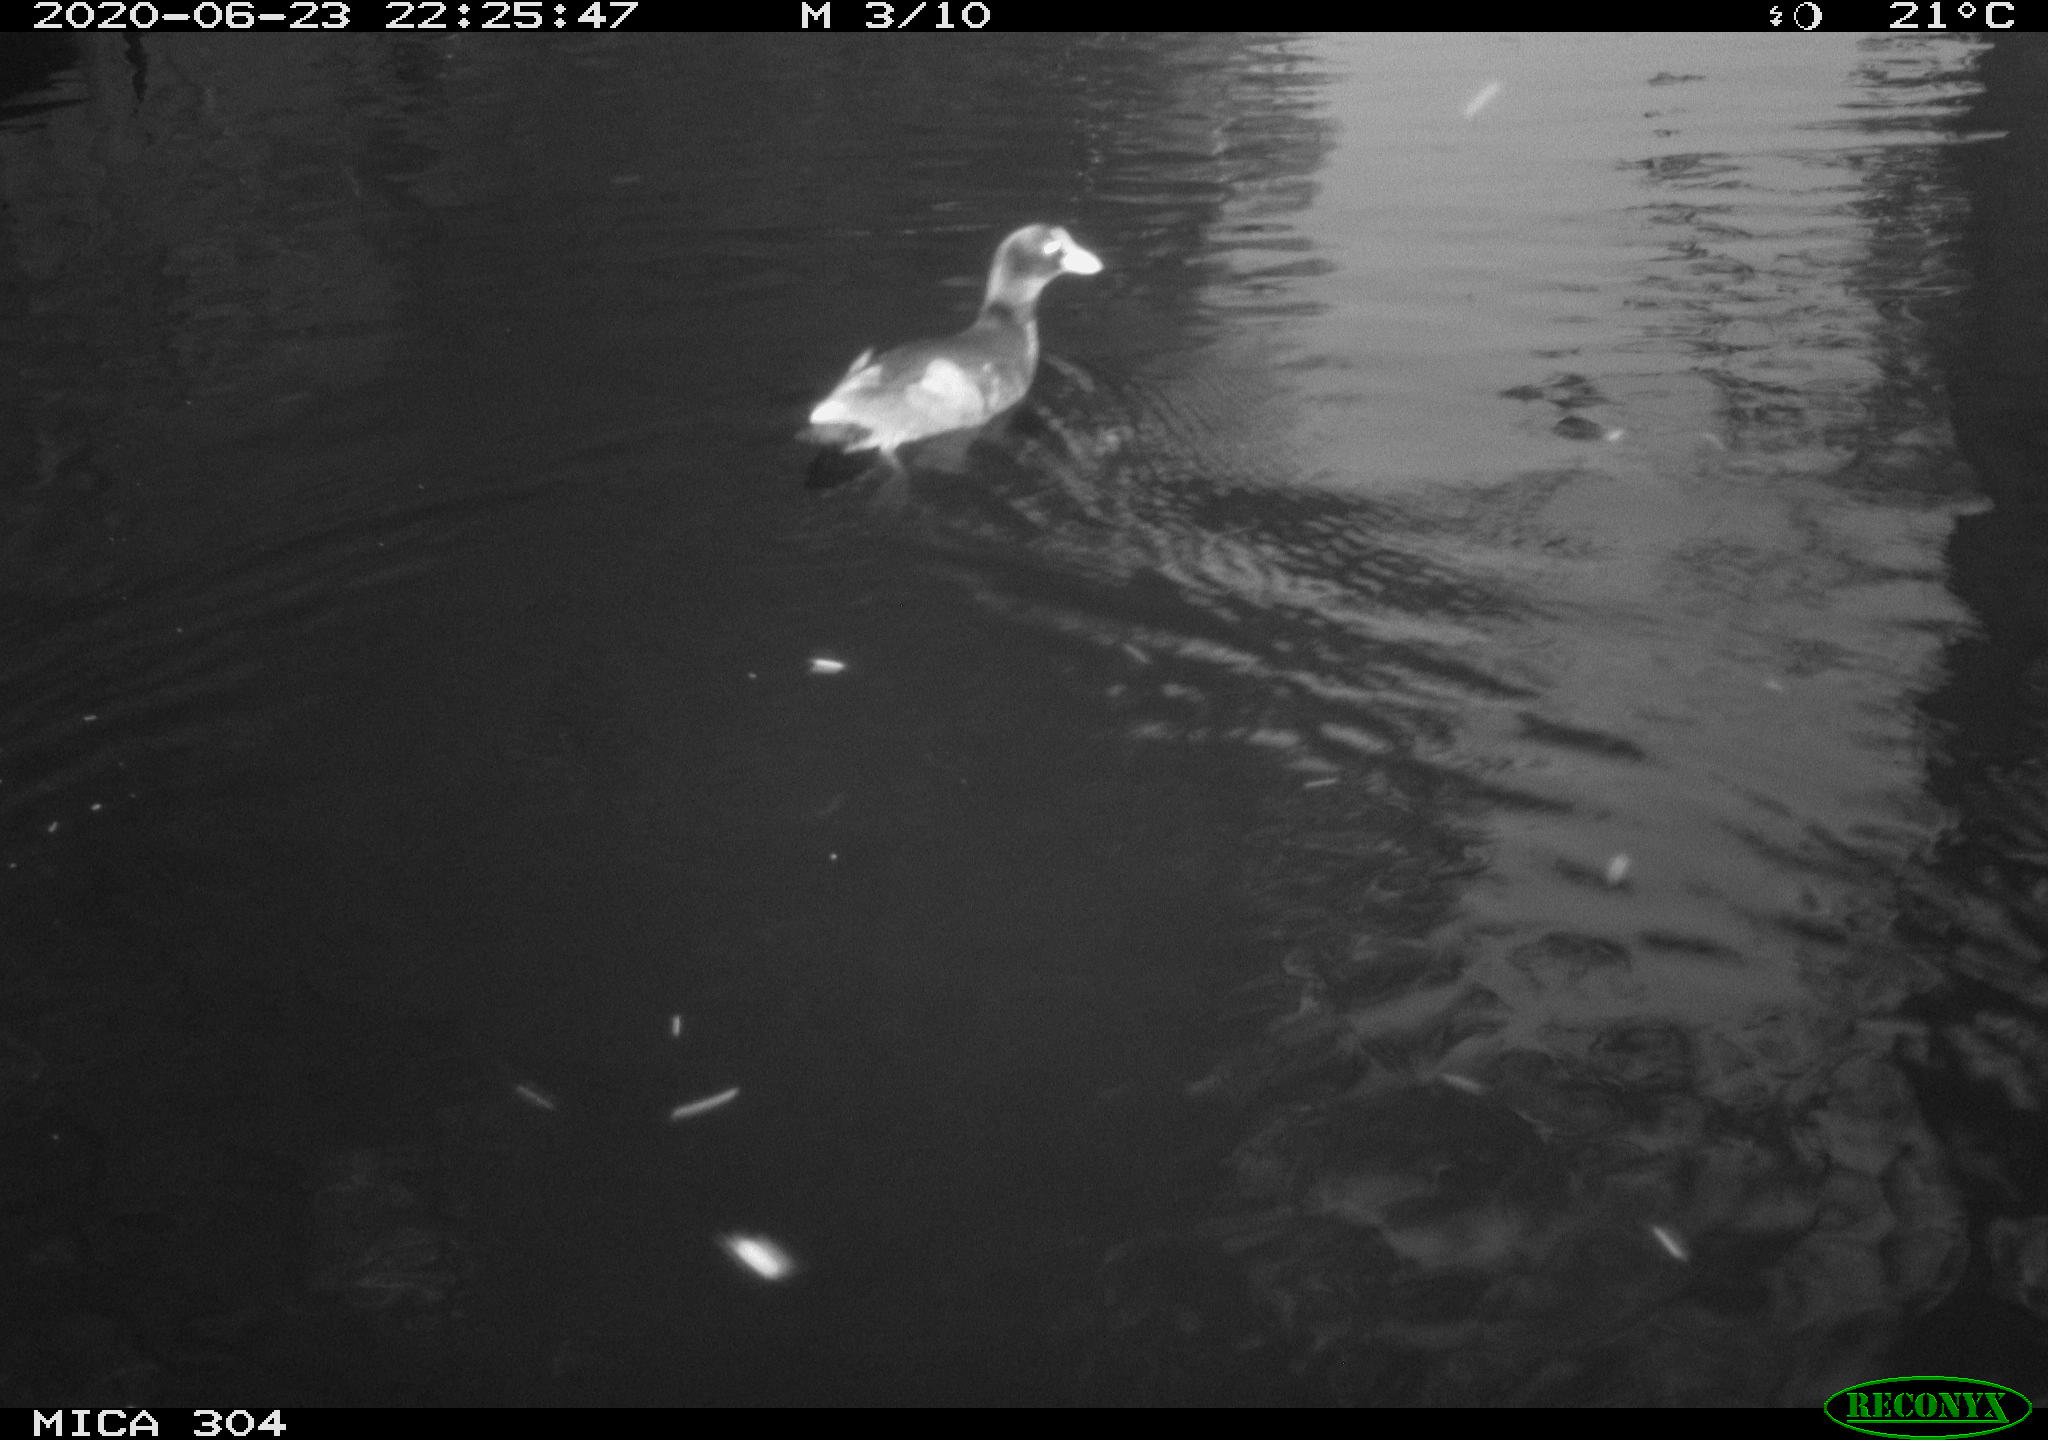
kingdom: Animalia
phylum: Chordata
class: Aves
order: Gruiformes
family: Rallidae
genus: Gallinula
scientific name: Gallinula chloropus
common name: Common moorhen
